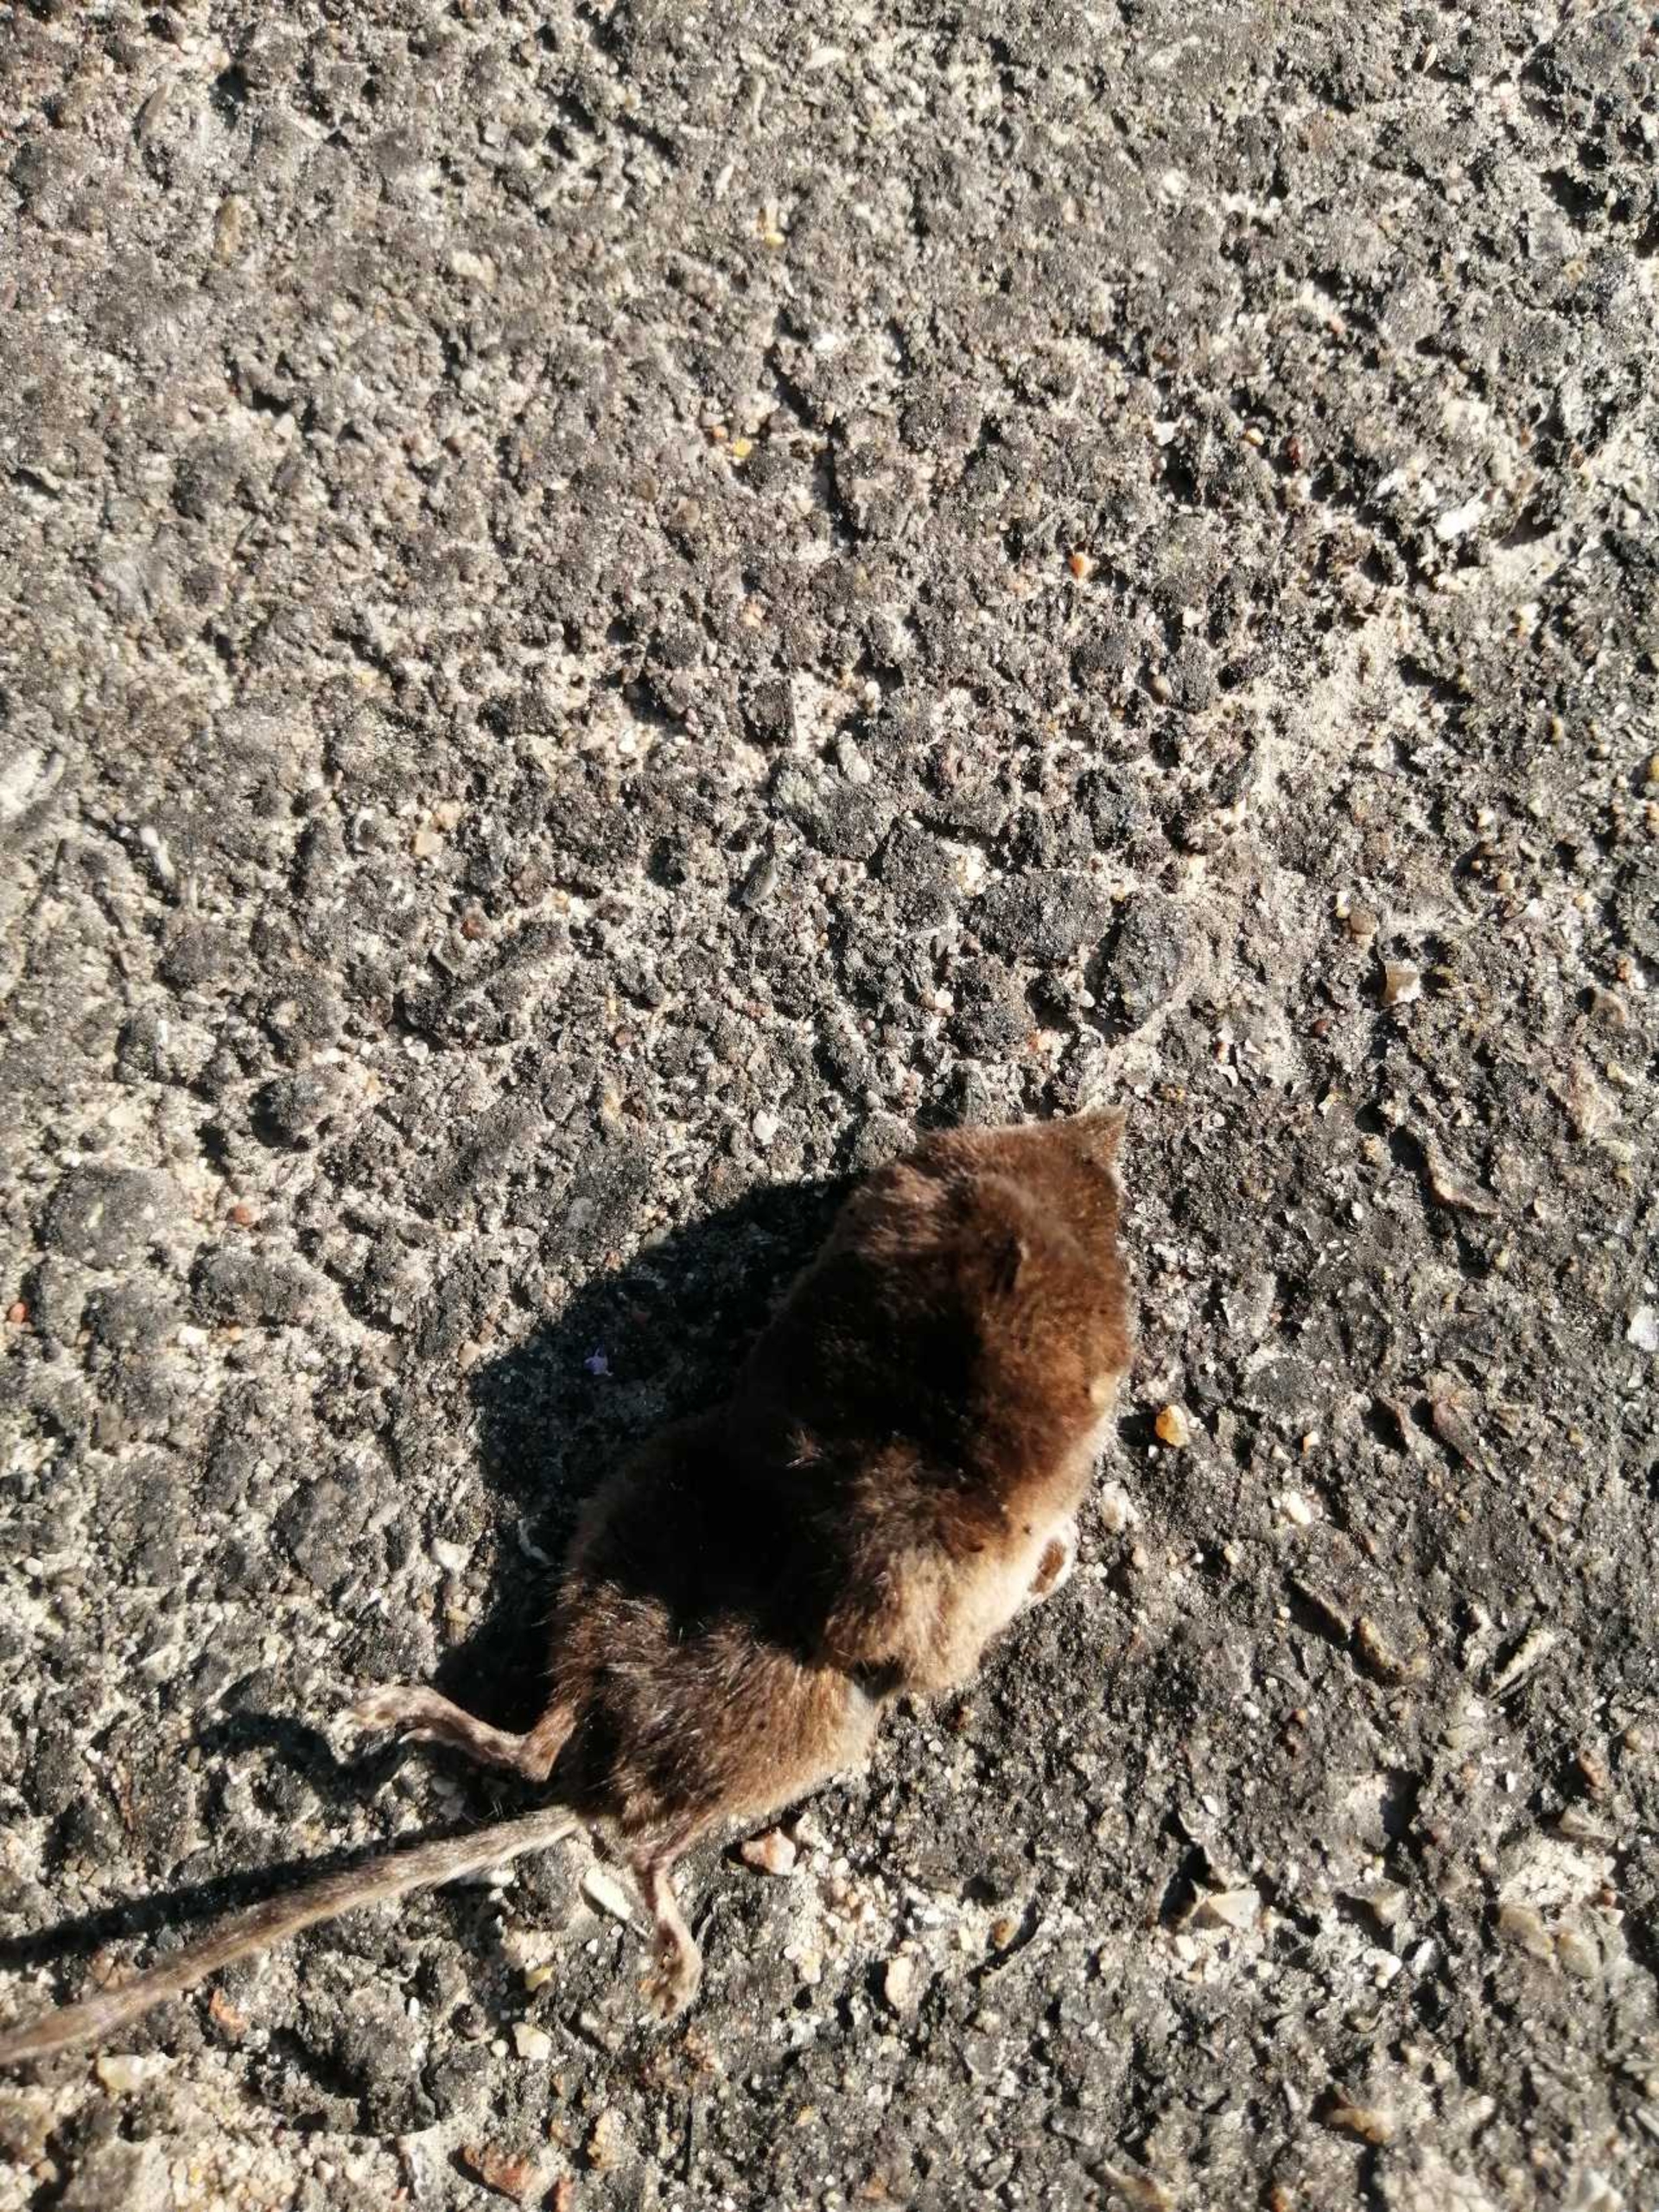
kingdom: Animalia
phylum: Chordata
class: Mammalia
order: Soricomorpha
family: Soricidae
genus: Sorex
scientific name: Sorex araneus
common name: Almindelig spidsmus
